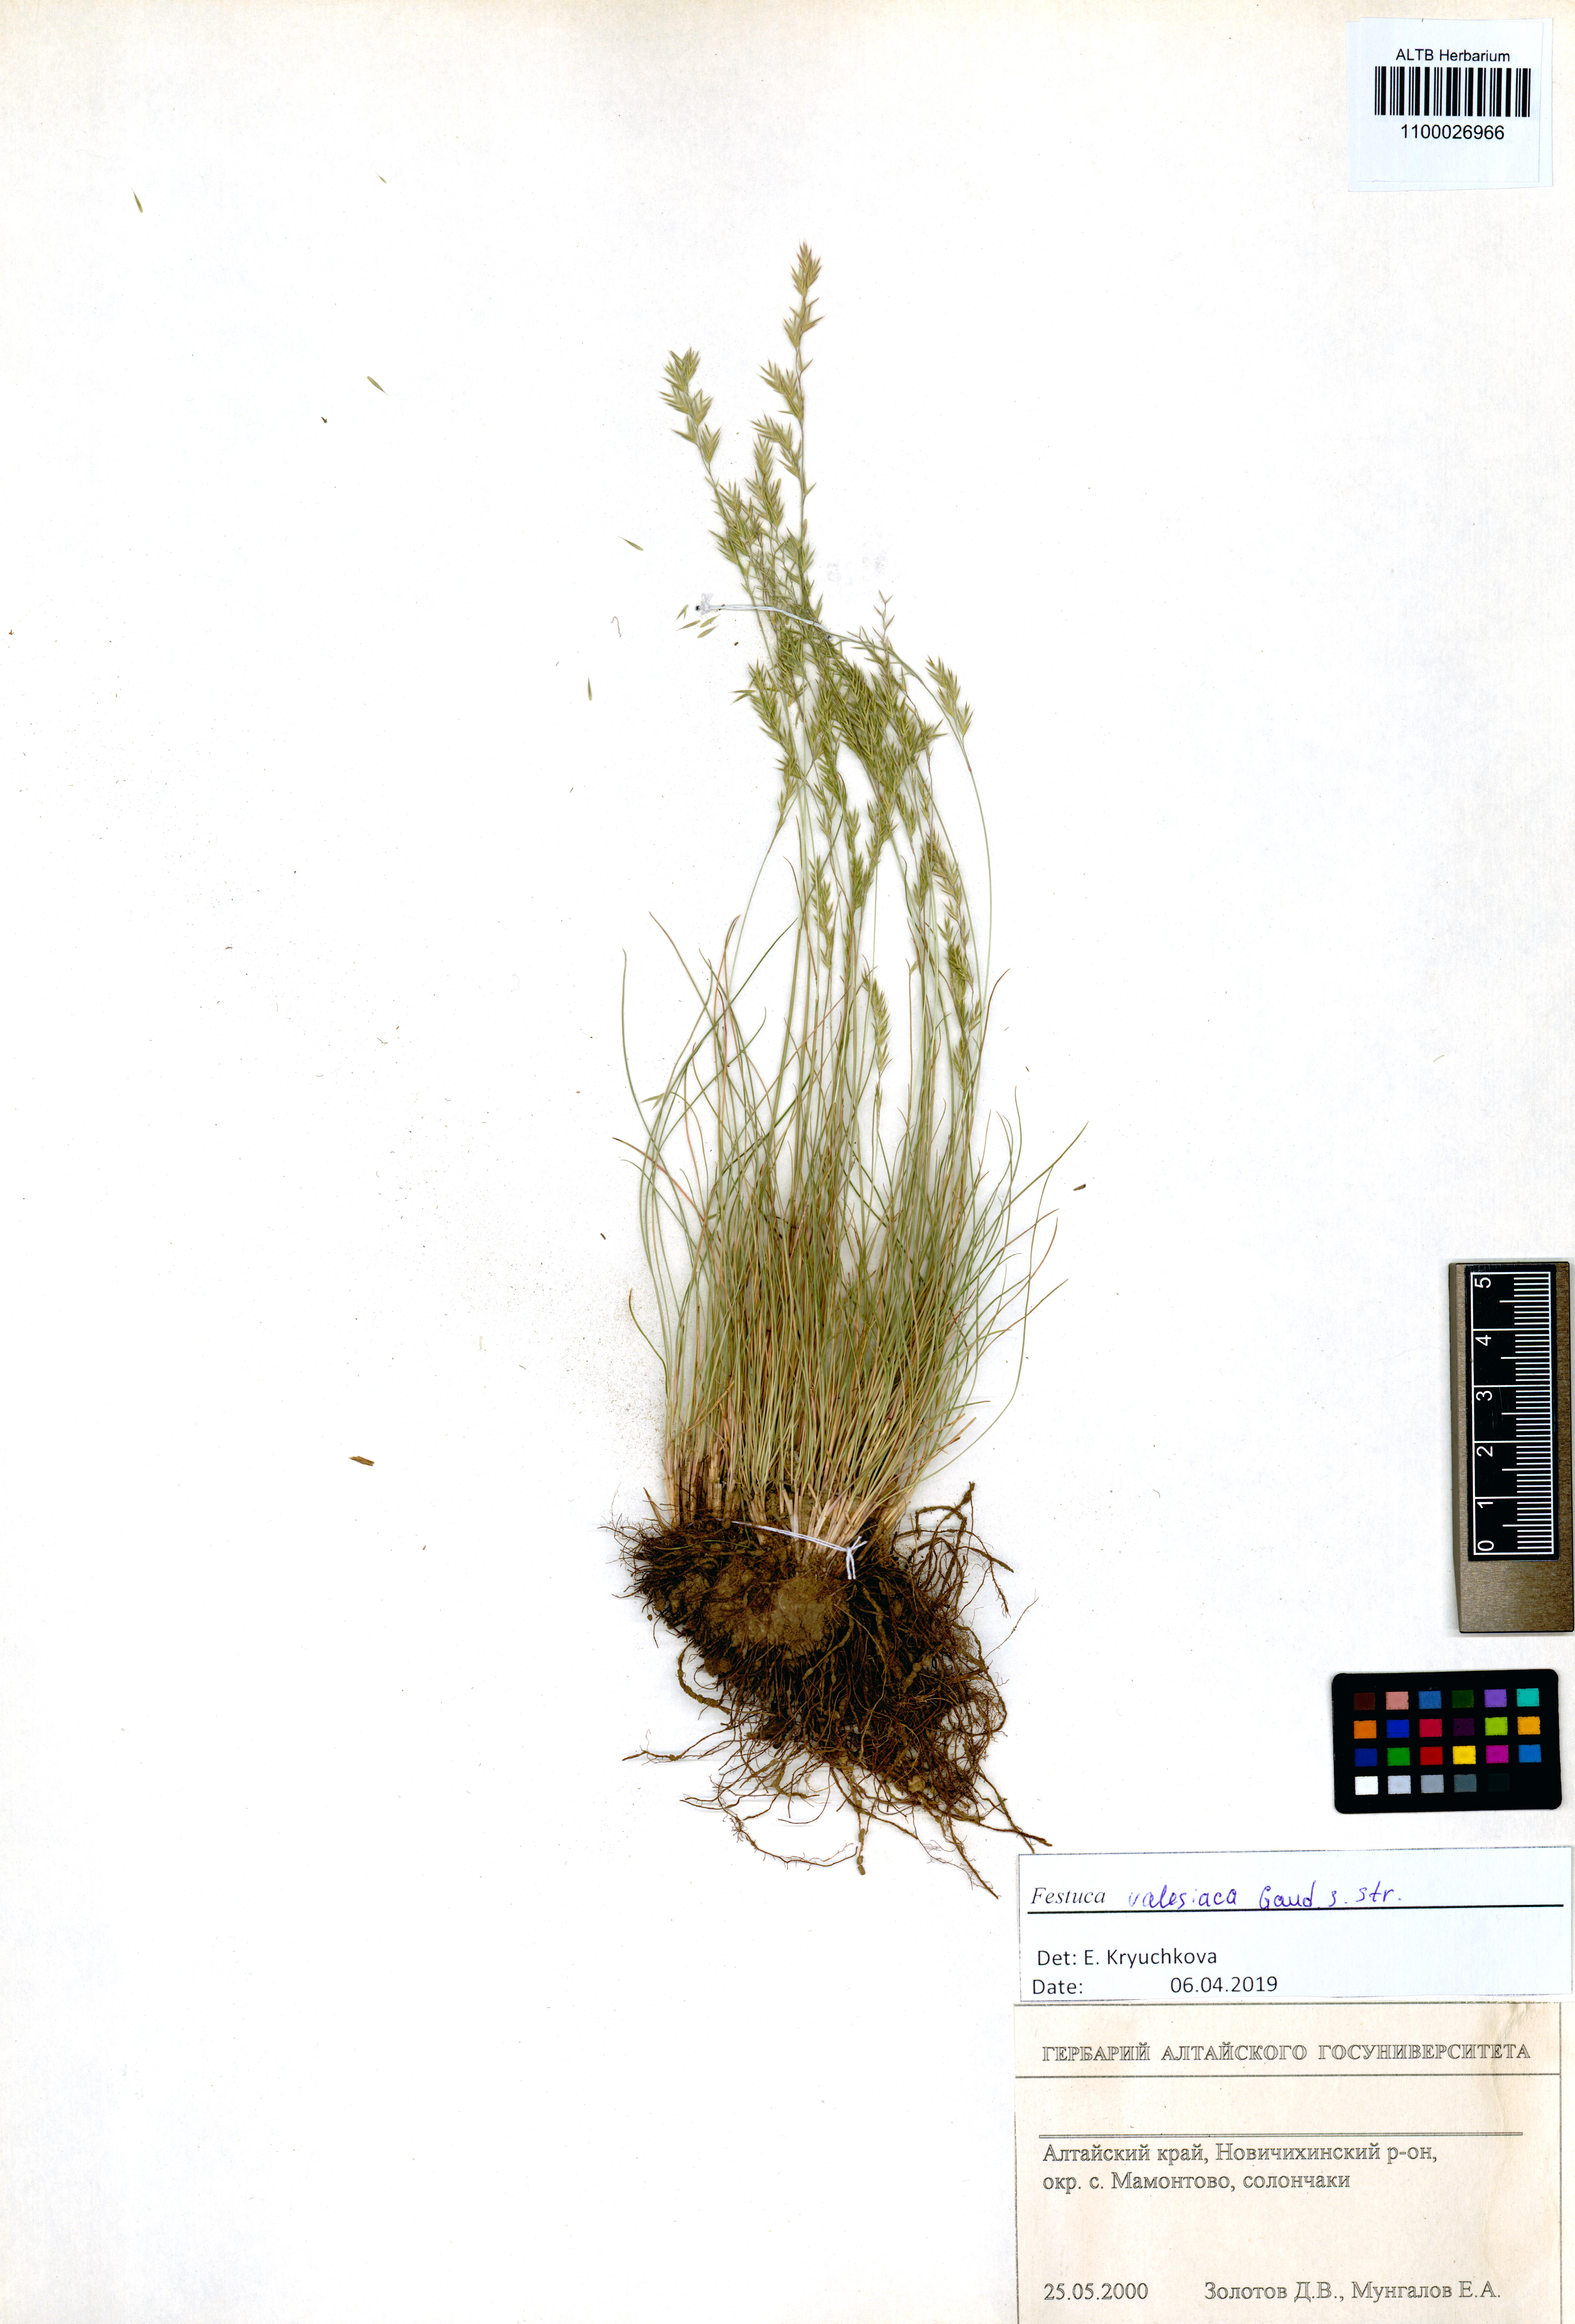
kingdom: Plantae
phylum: Tracheophyta
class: Liliopsida
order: Poales
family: Poaceae
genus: Festuca
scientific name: Festuca valesiaca
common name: Volga fescue
